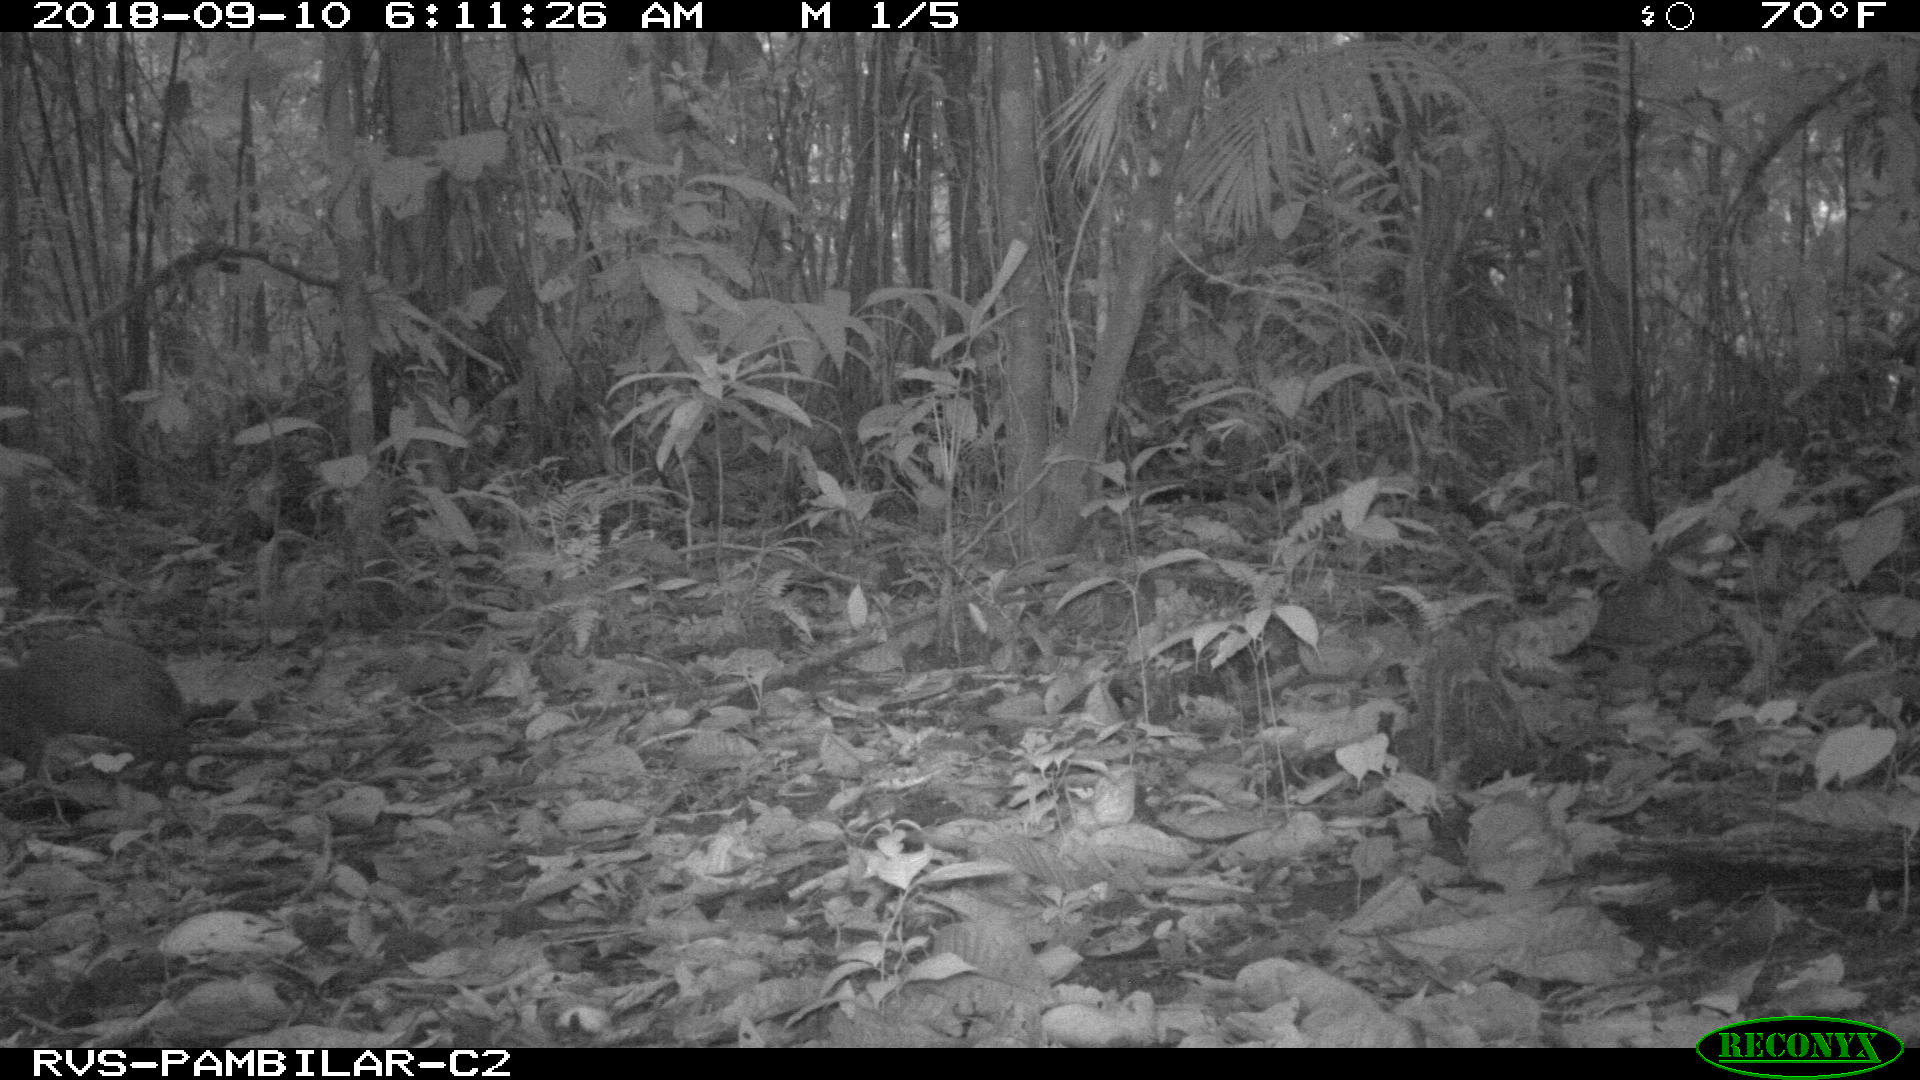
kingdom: Animalia
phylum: Chordata
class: Mammalia
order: Rodentia
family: Dasyproctidae
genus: Dasyprocta
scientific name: Dasyprocta punctata
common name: Central american agouti
